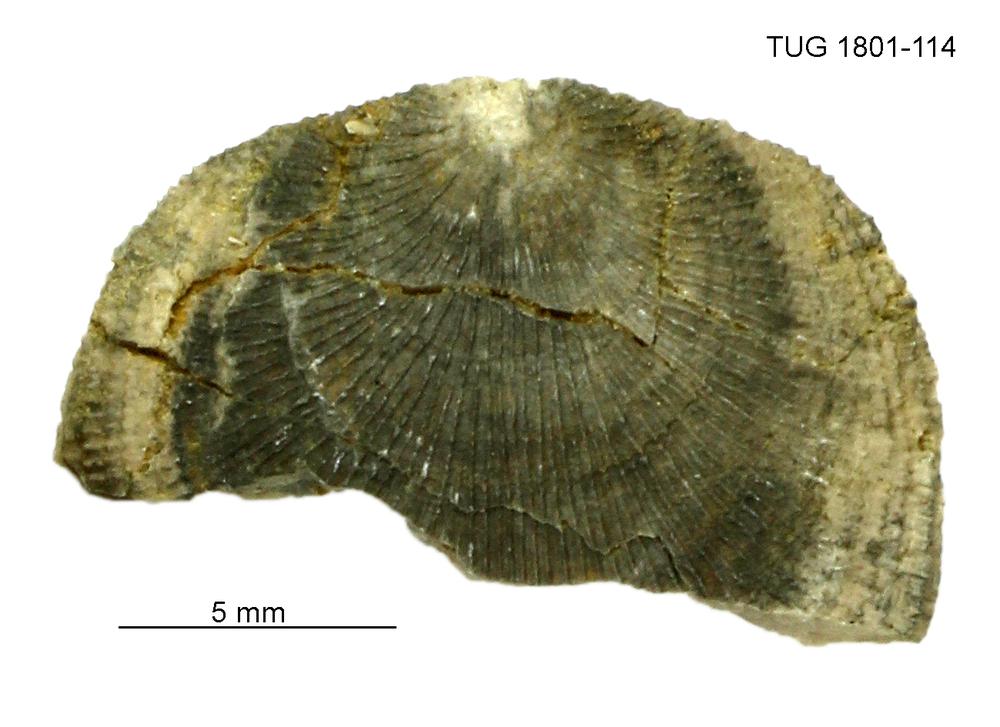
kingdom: Animalia
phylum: Brachiopoda
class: Craniata
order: Craniida
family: Craniidae
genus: Philhedra
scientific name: Philhedra
